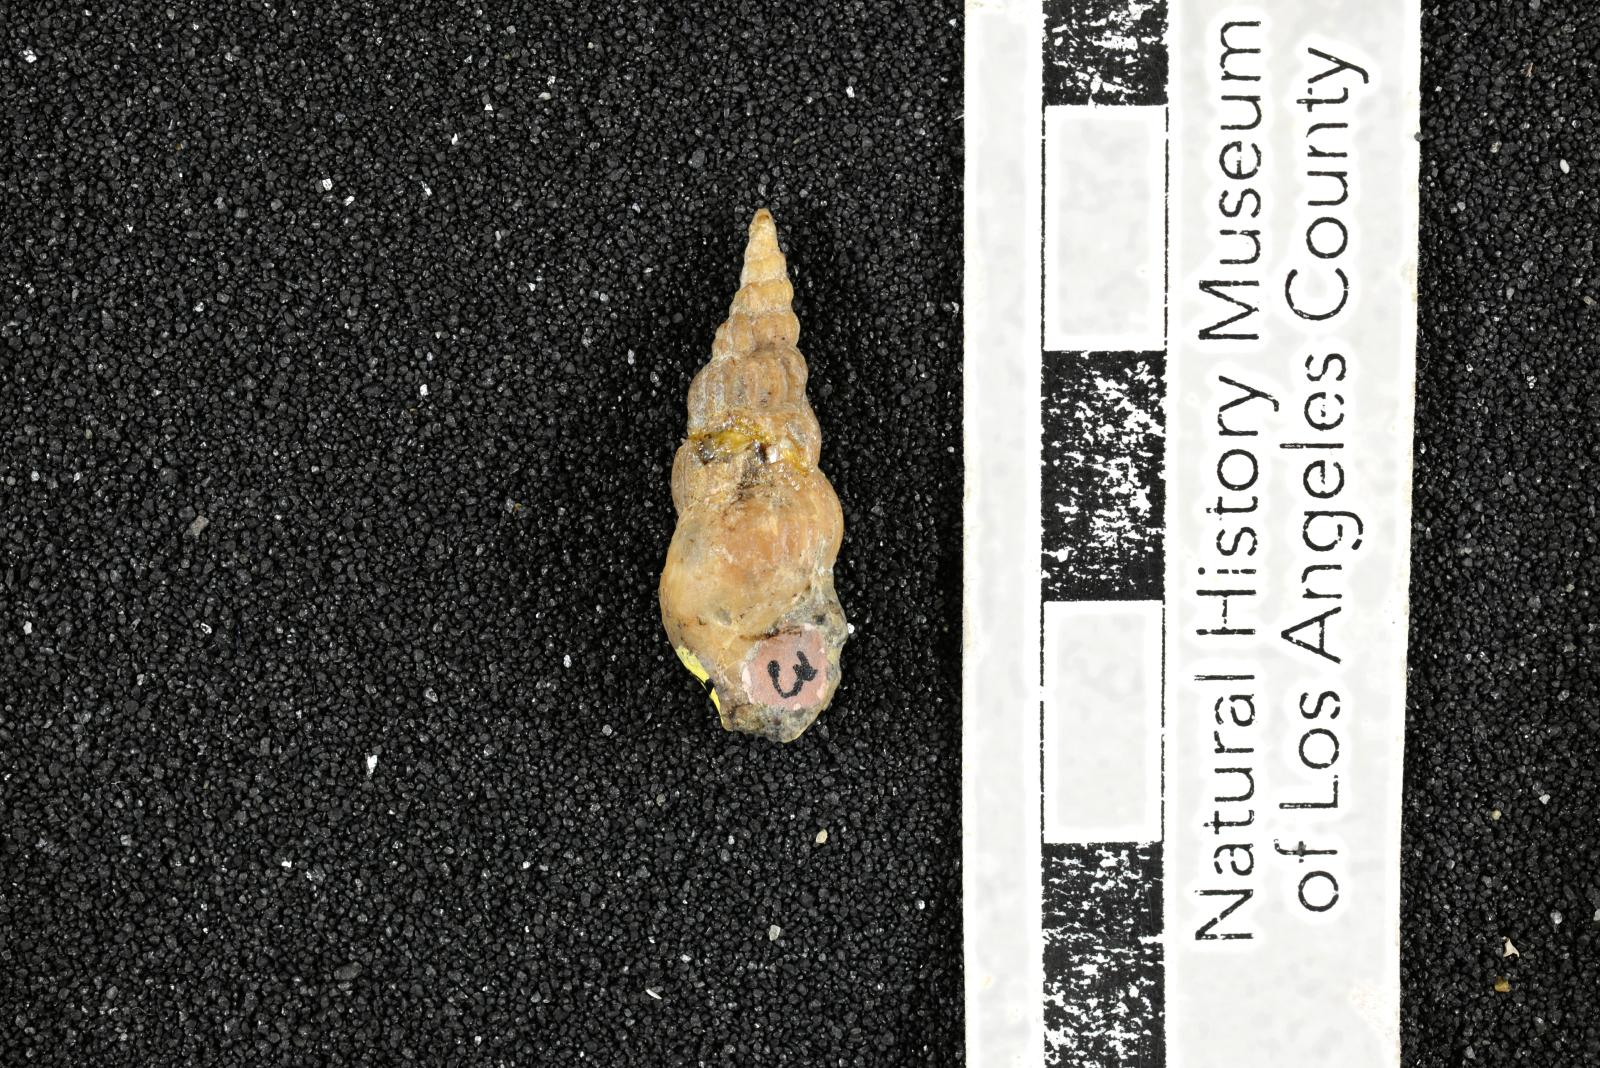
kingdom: Animalia
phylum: Mollusca
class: Gastropoda
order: Littorinimorpha
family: Aporrhaidae
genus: Alarimella
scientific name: Alarimella anae
